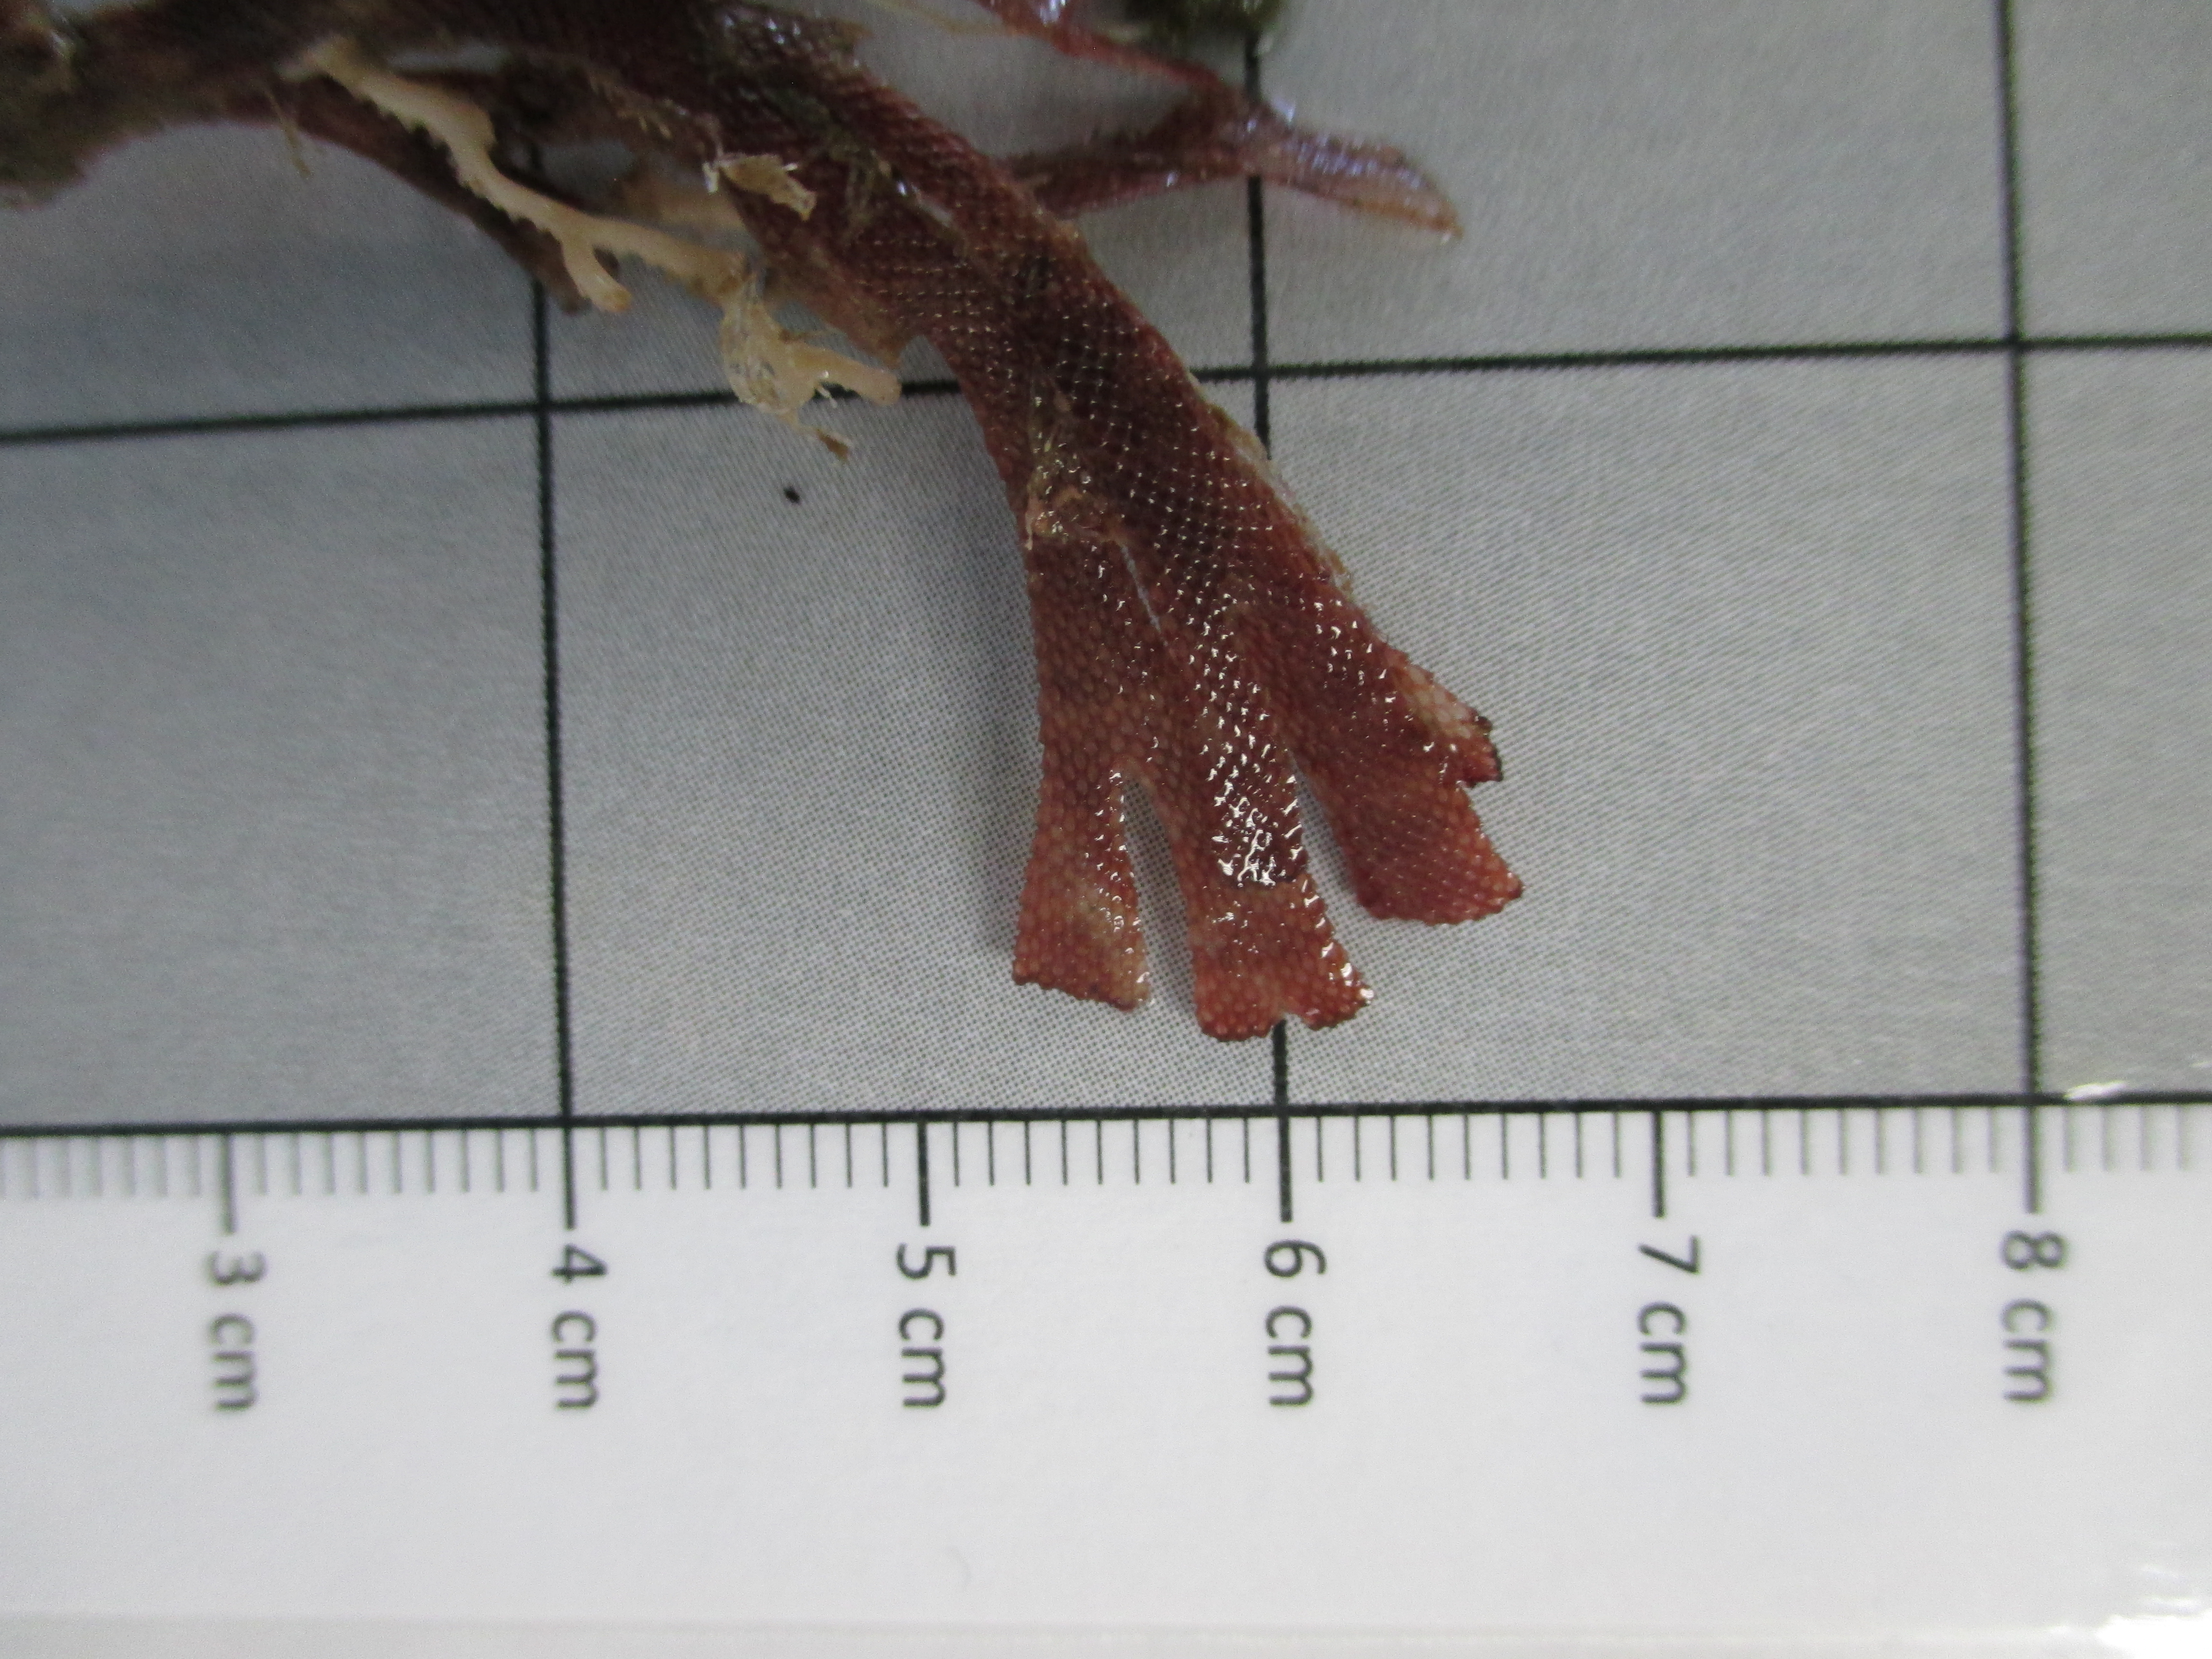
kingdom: Animalia
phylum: Bryozoa
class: Gymnolaemata
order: Cheilostomatida
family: Flustridae
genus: Securiflustra
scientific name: Securiflustra
